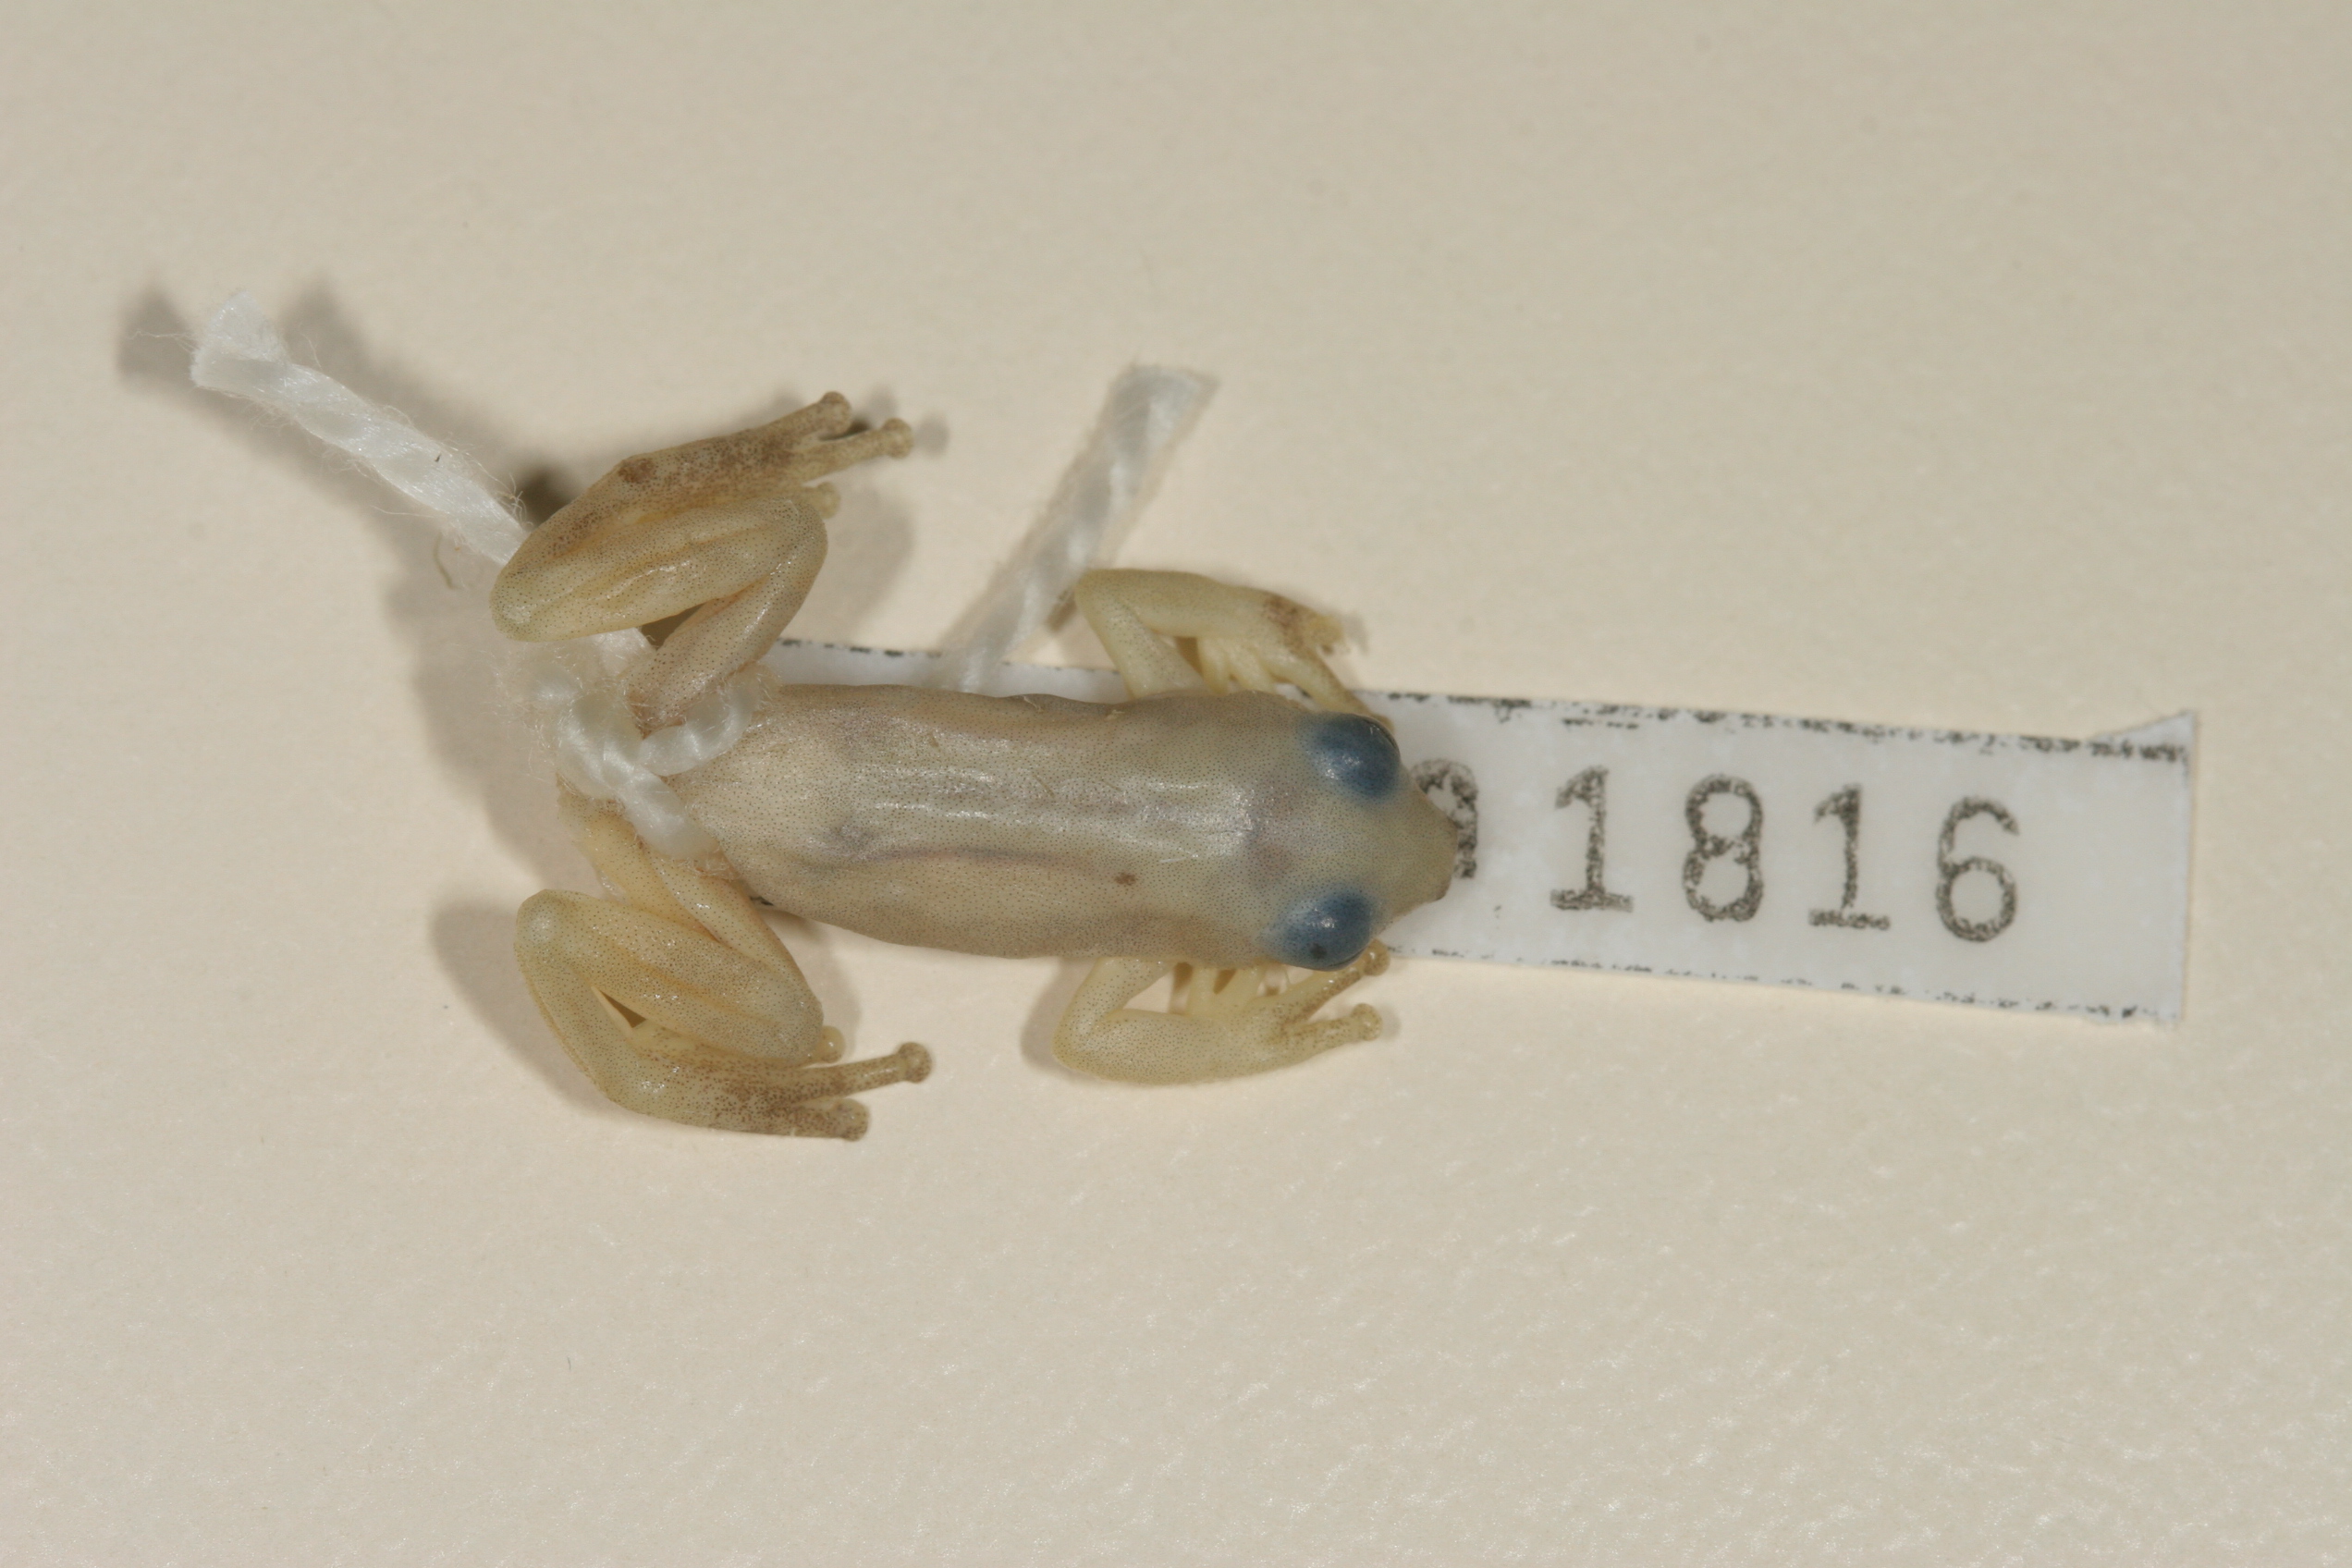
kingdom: Animalia
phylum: Chordata
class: Amphibia
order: Anura
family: Hyperoliidae
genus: Afrixalus
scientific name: Afrixalus delicatus
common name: Delicate leaf-folding frog
